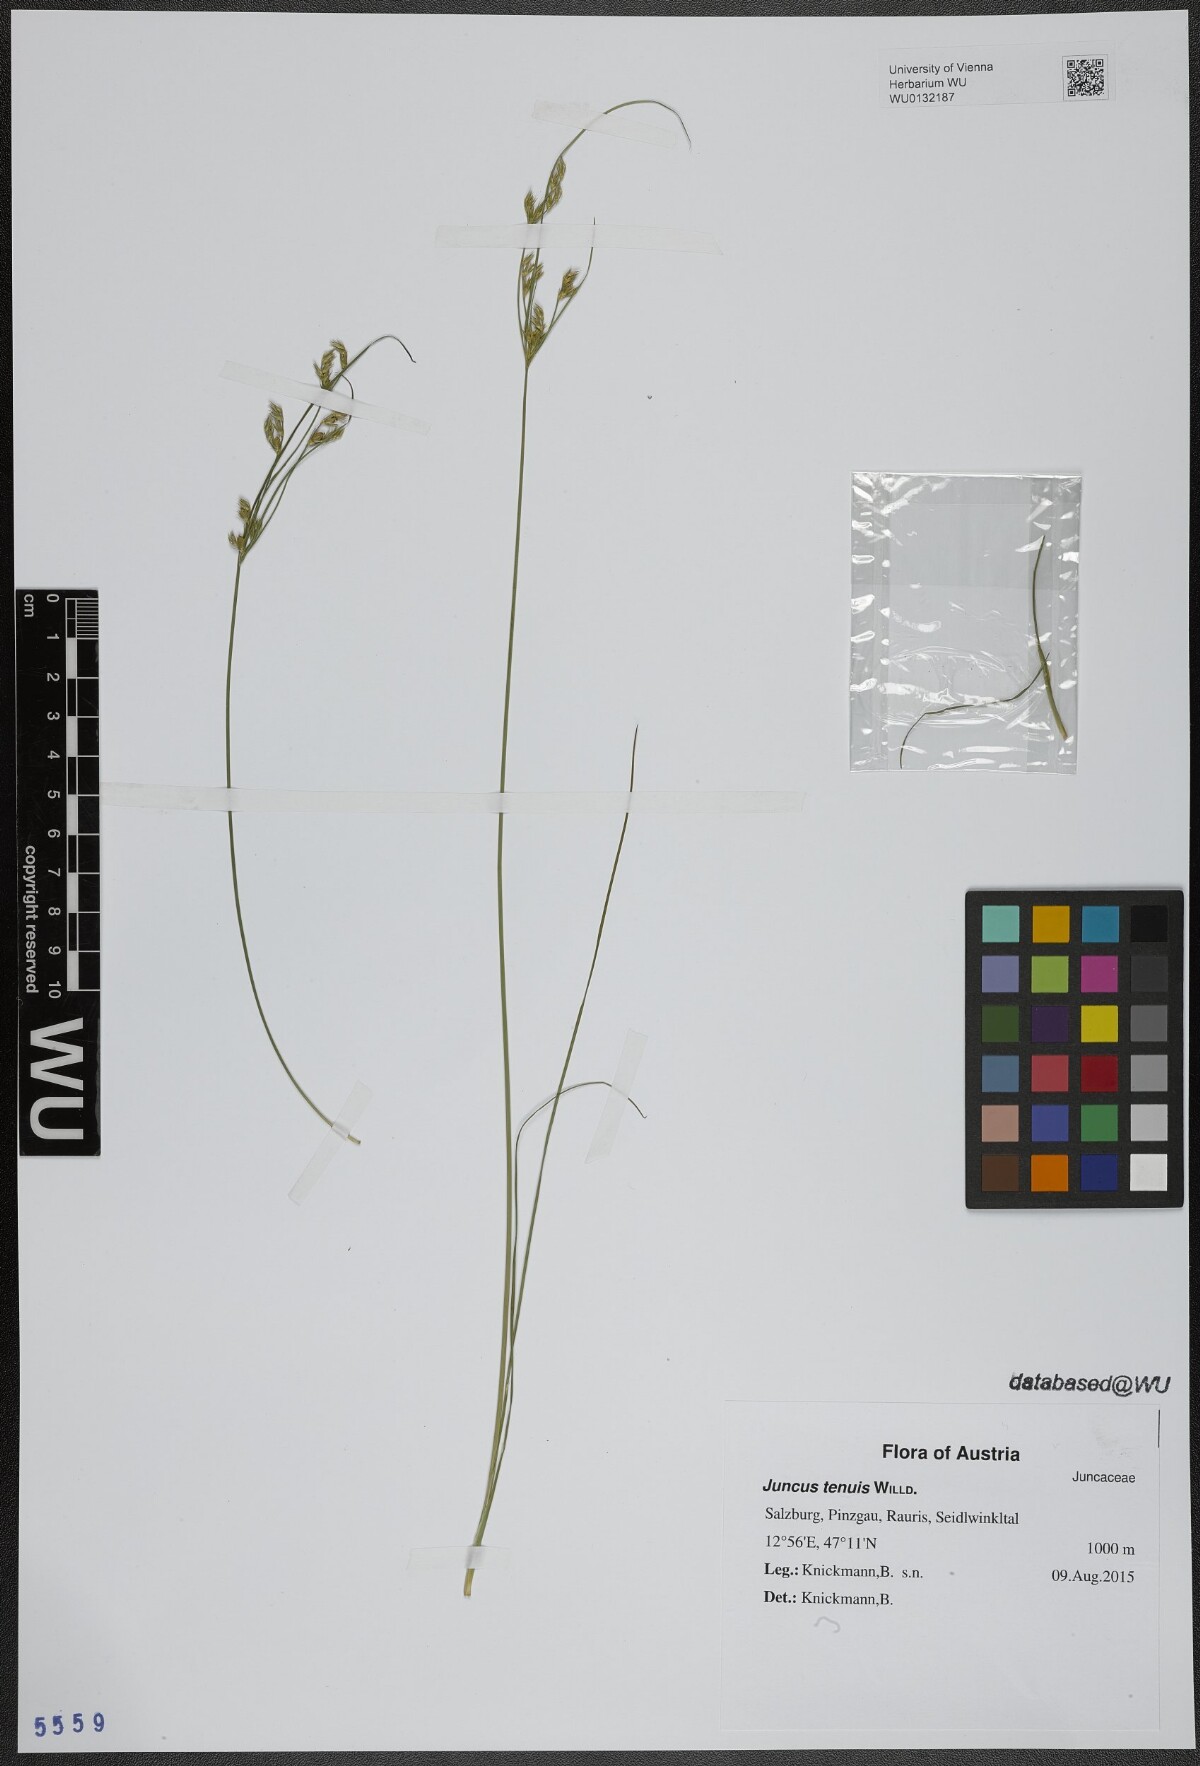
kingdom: Plantae
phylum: Tracheophyta
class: Liliopsida
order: Poales
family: Juncaceae
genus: Juncus
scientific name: Juncus tenuis
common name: Slender rush
